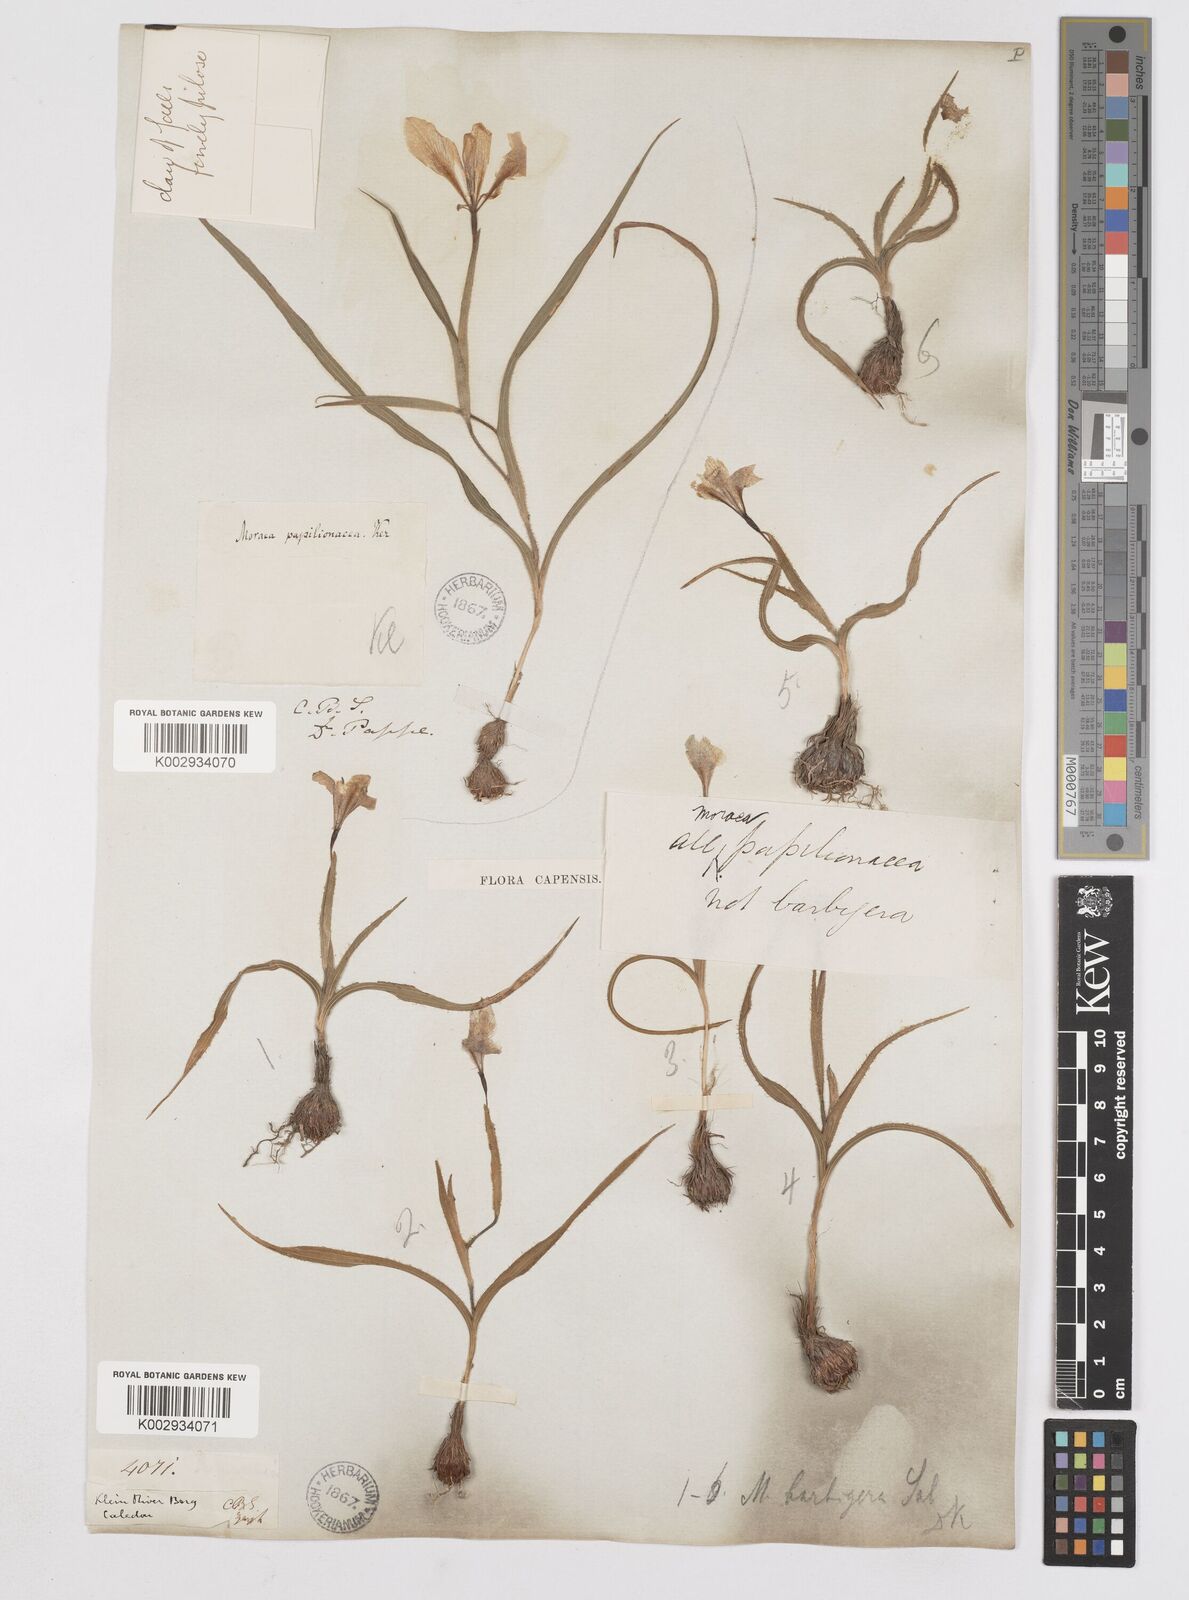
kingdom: Plantae
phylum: Tracheophyta
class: Liliopsida
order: Asparagales
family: Iridaceae
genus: Moraea
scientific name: Moraea papilionacea
